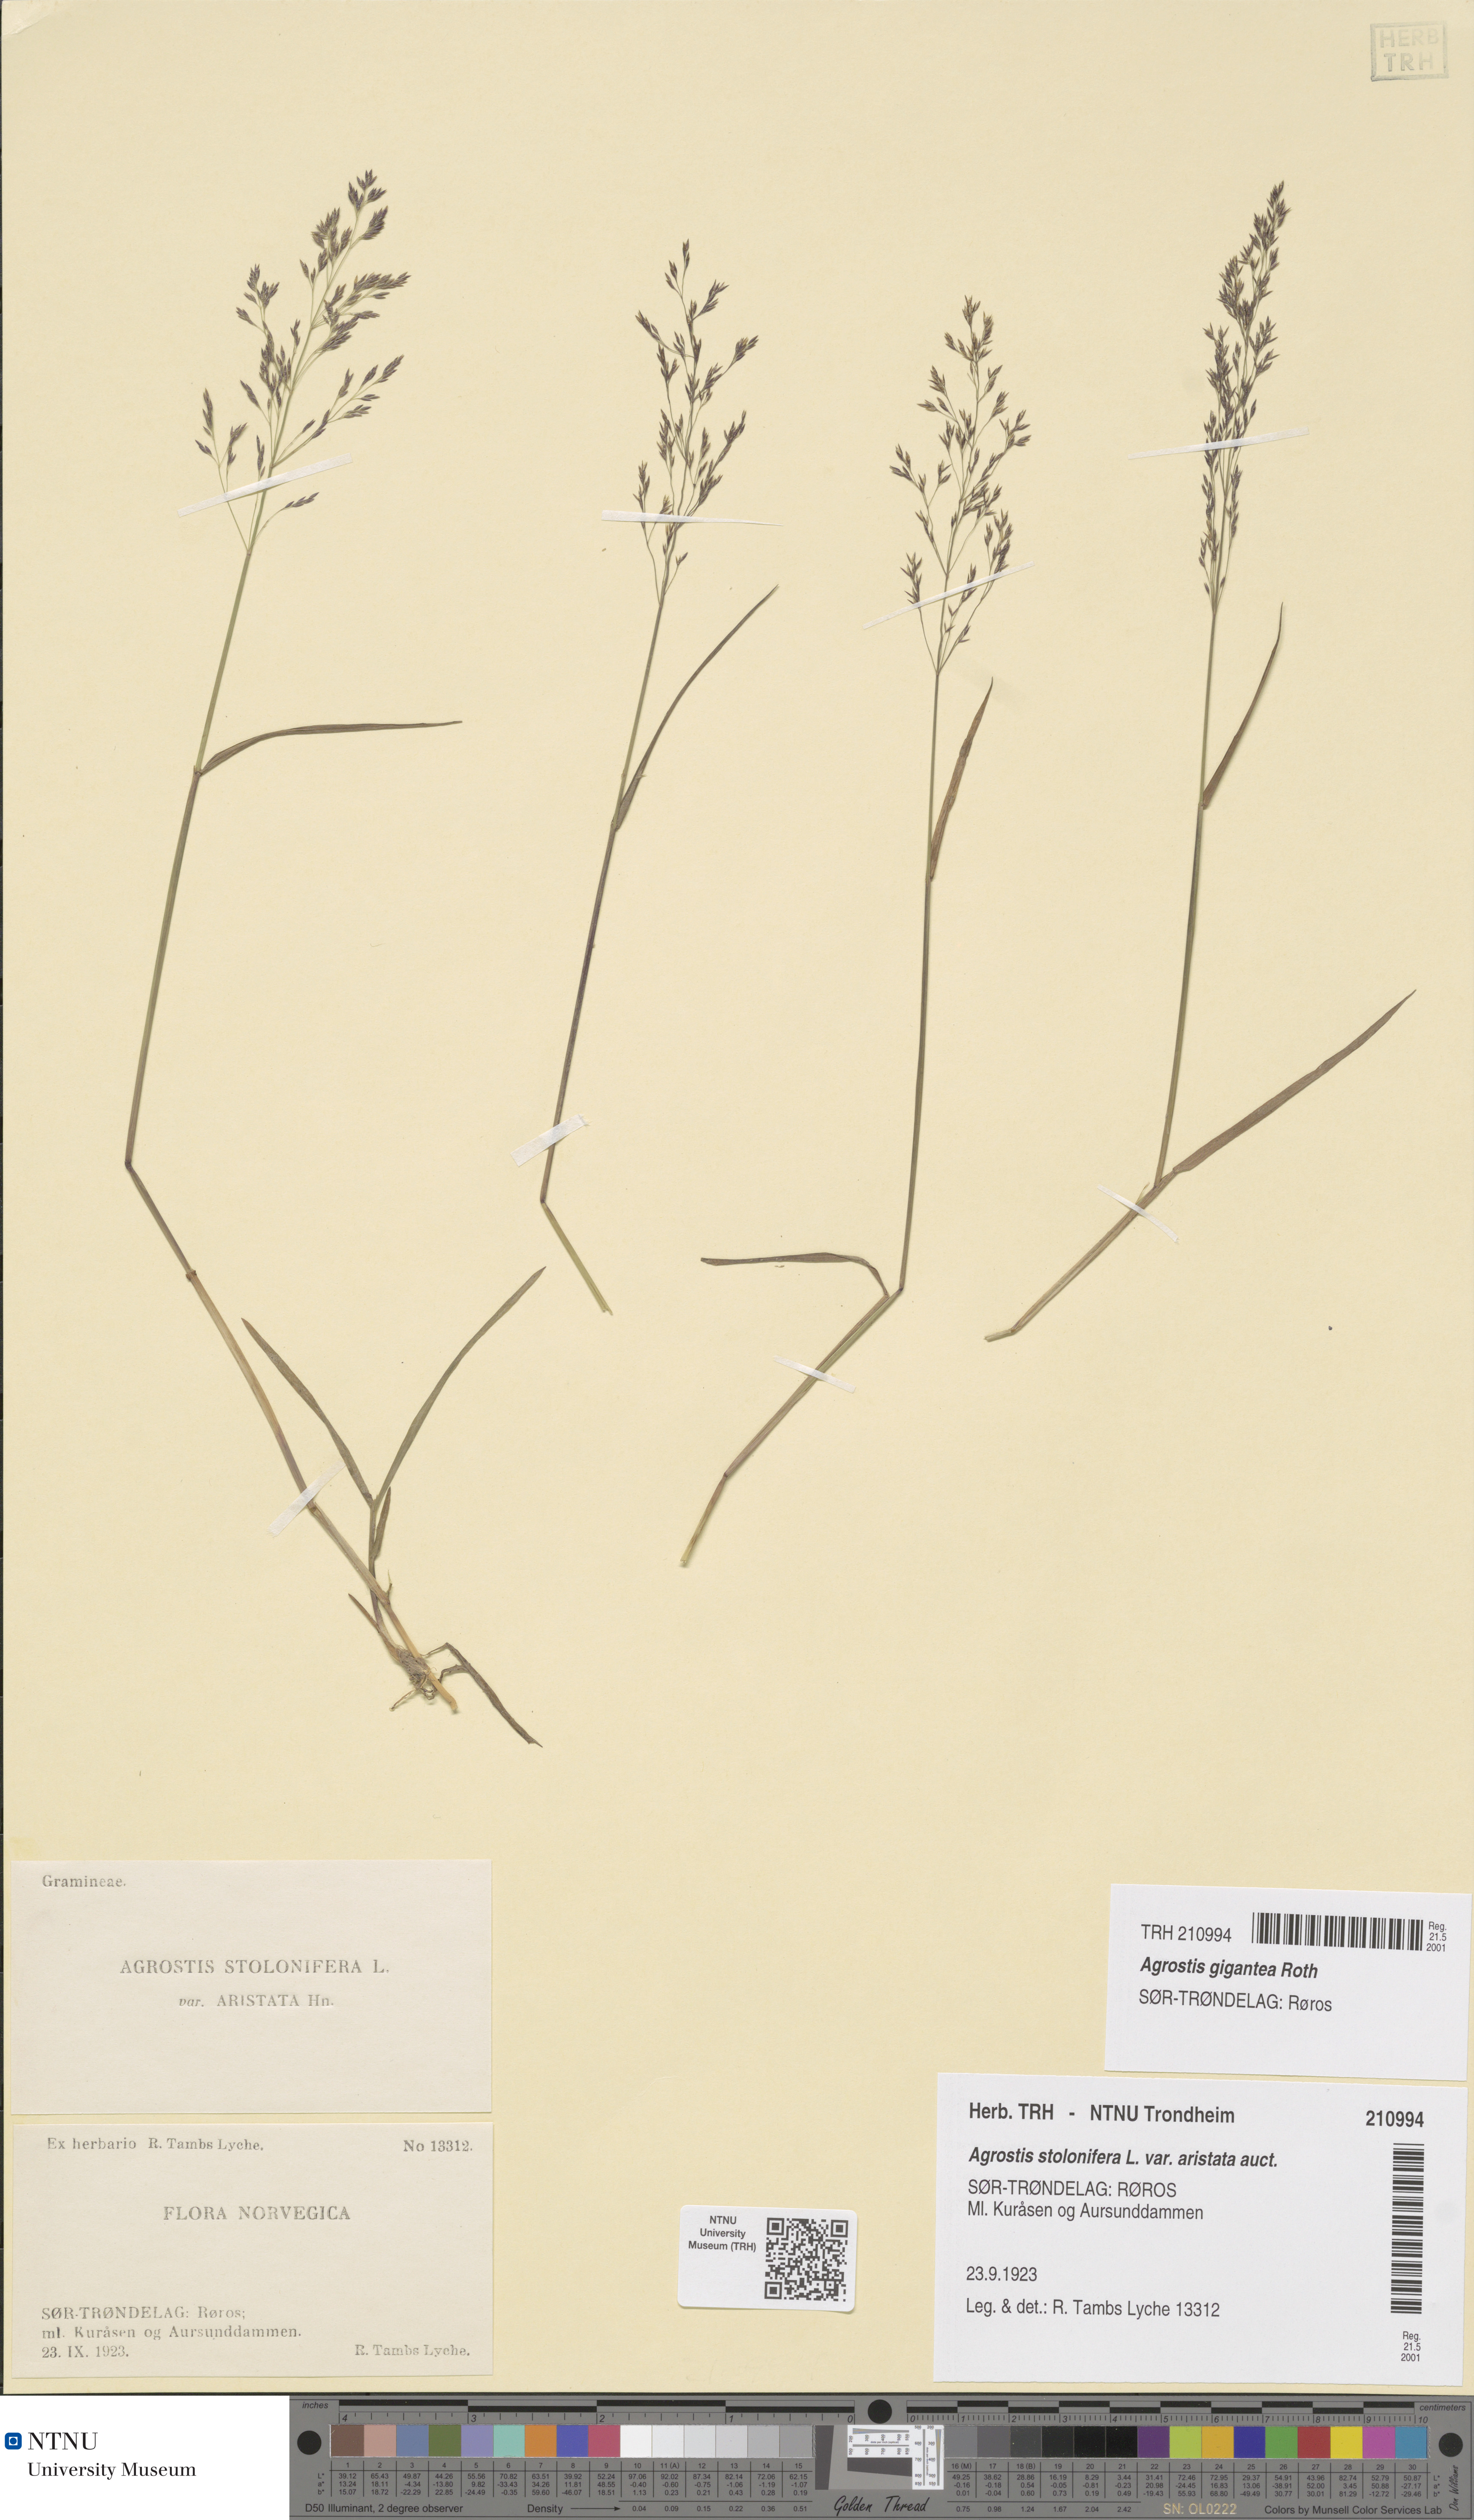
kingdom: Plantae
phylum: Tracheophyta
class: Liliopsida
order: Poales
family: Poaceae
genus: Agrostis
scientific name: Agrostis gigantea
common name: Black bent
